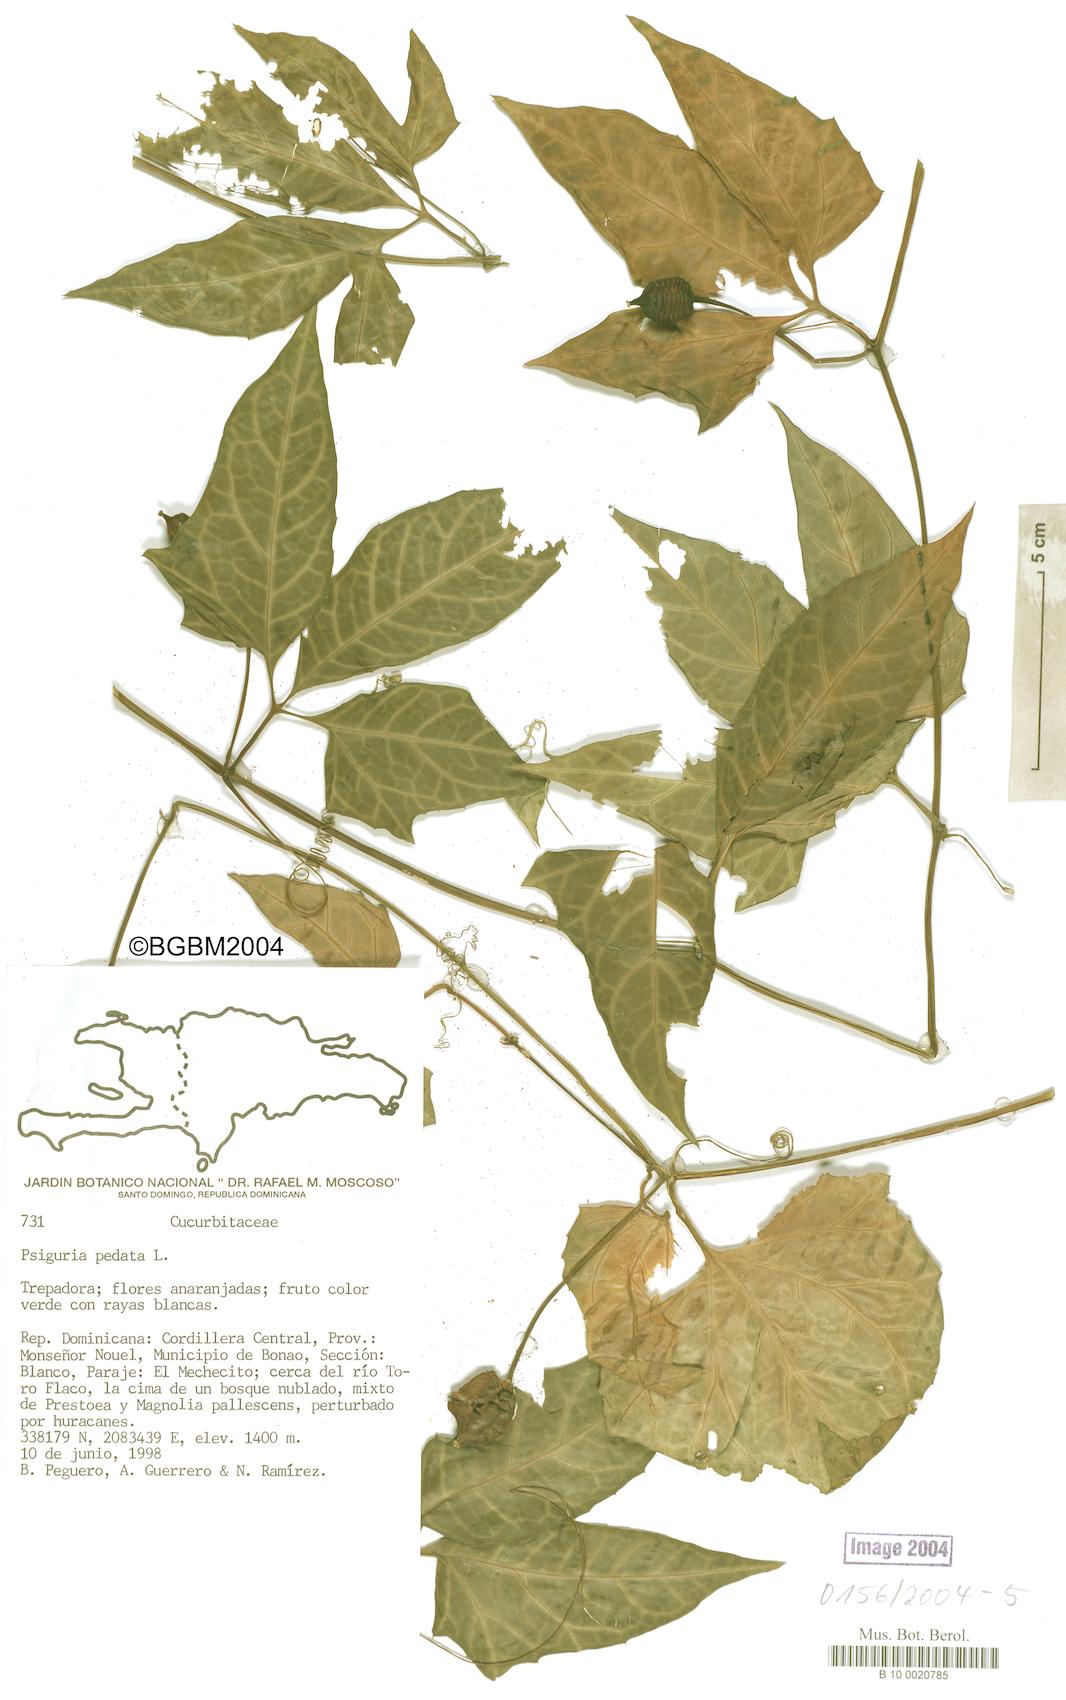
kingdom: Plantae
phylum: Tracheophyta
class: Magnoliopsida
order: Cucurbitales
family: Cucurbitaceae
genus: Psiguria
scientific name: Psiguria pedata
